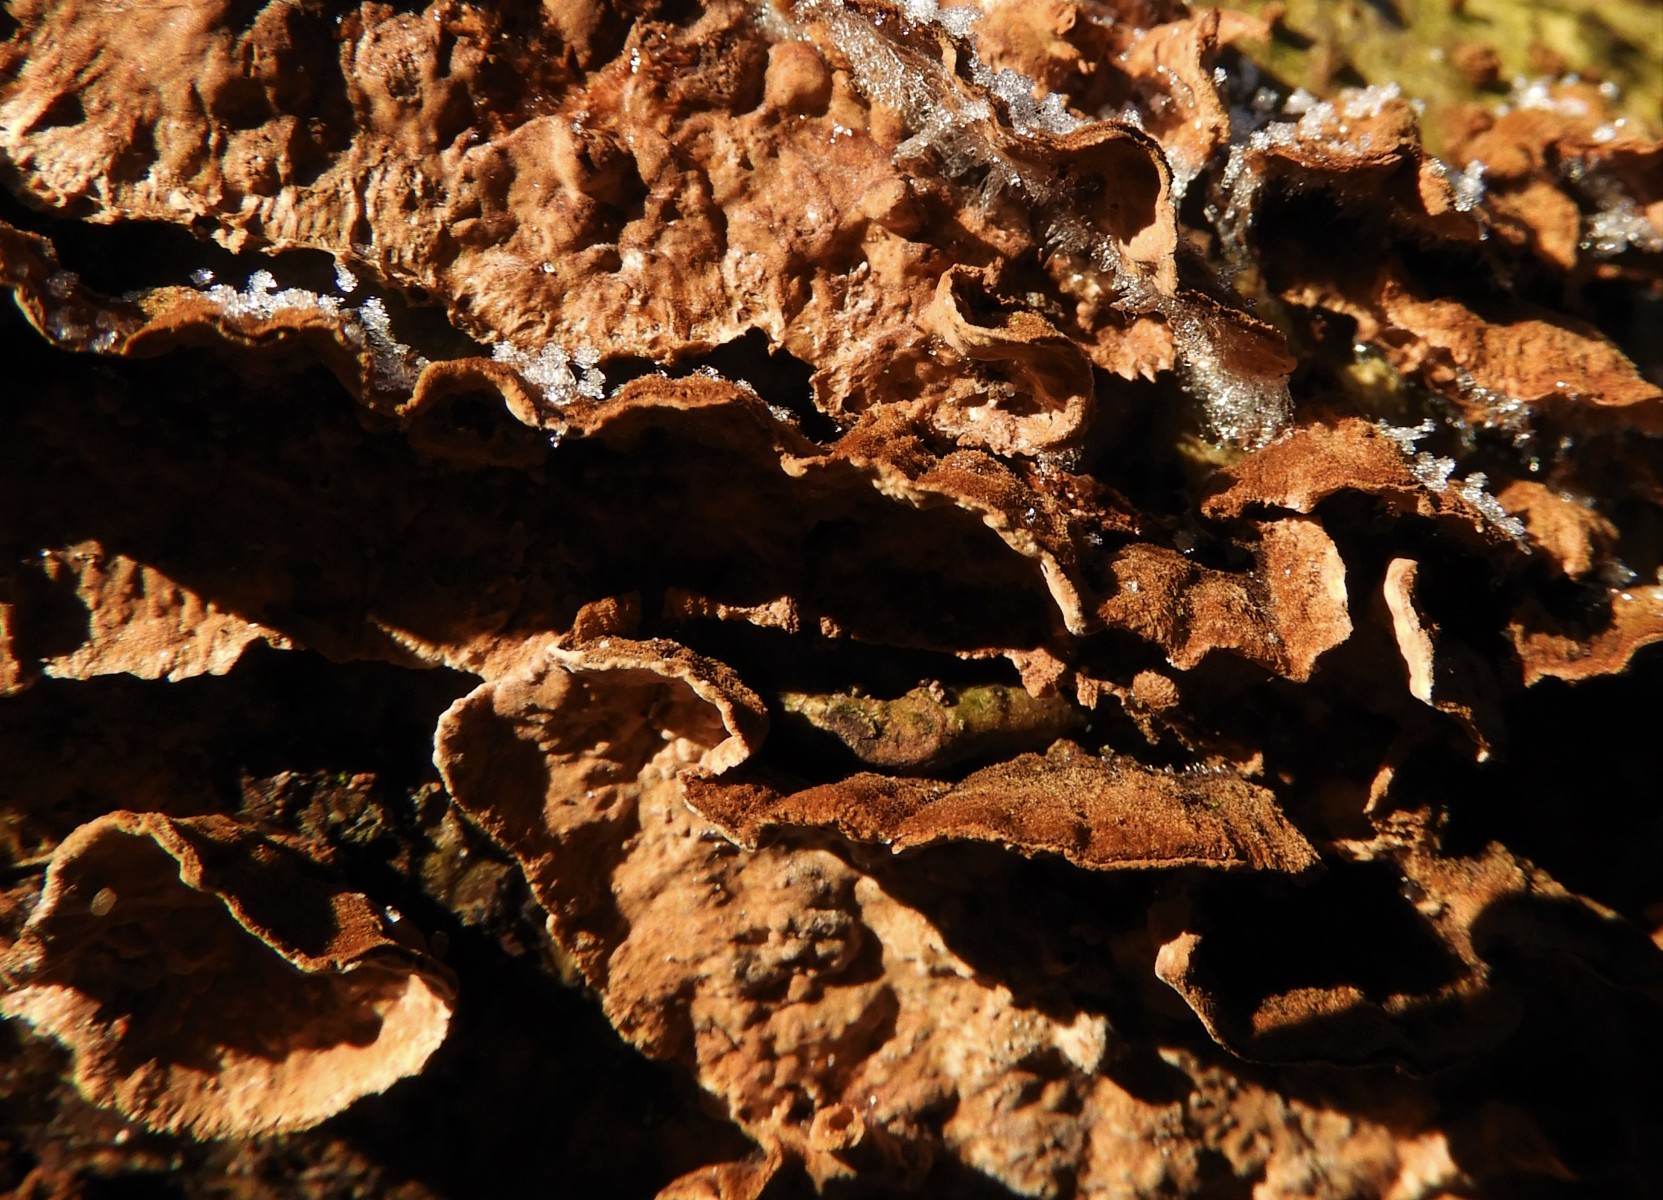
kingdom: Fungi
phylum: Basidiomycota
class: Agaricomycetes
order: Hymenochaetales
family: Hymenochaetaceae
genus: Hydnoporia
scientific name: Hydnoporia tabacina
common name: tobaksbrun ruslædersvamp
